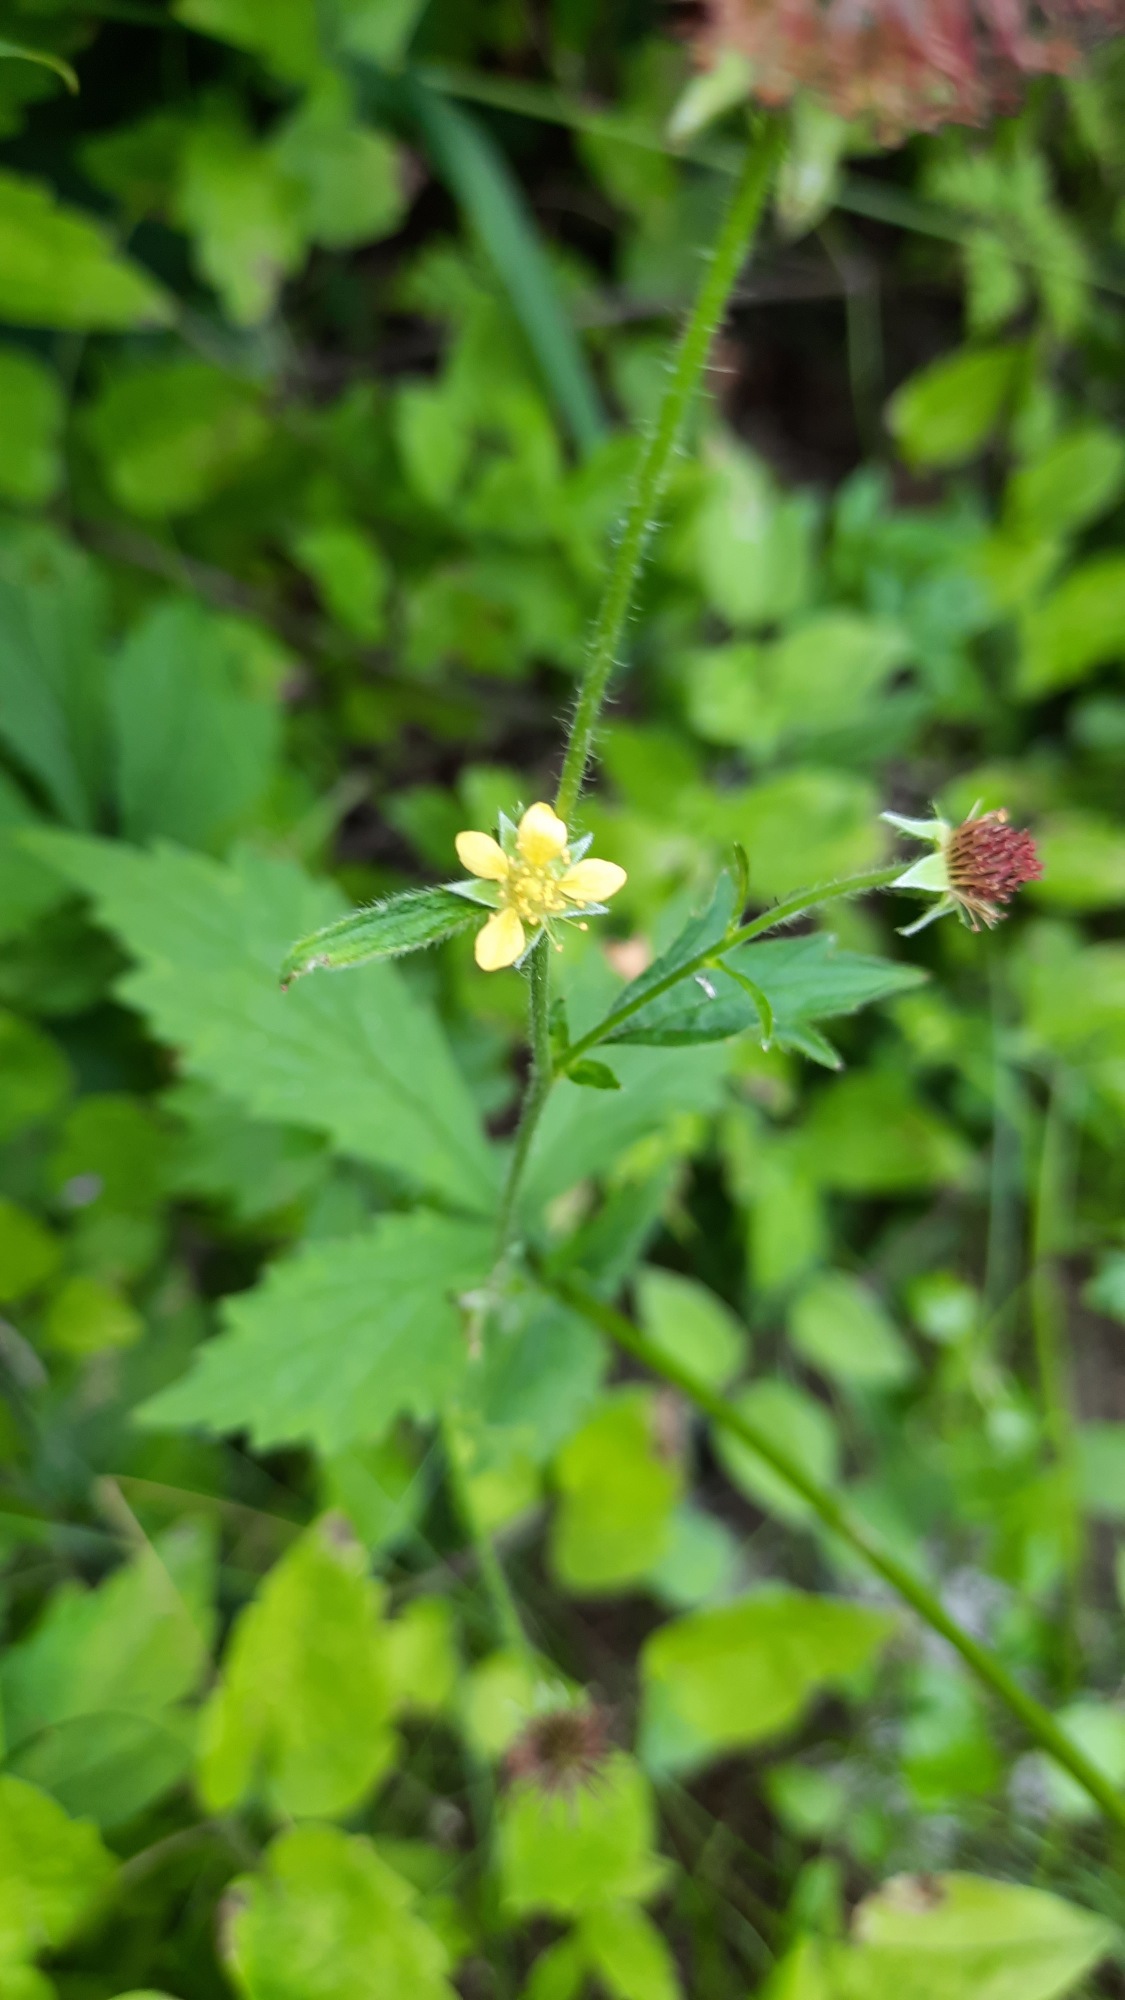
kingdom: Plantae
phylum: Tracheophyta
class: Magnoliopsida
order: Rosales
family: Rosaceae
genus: Geum
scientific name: Geum urbanum
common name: Feber-nellikerod
